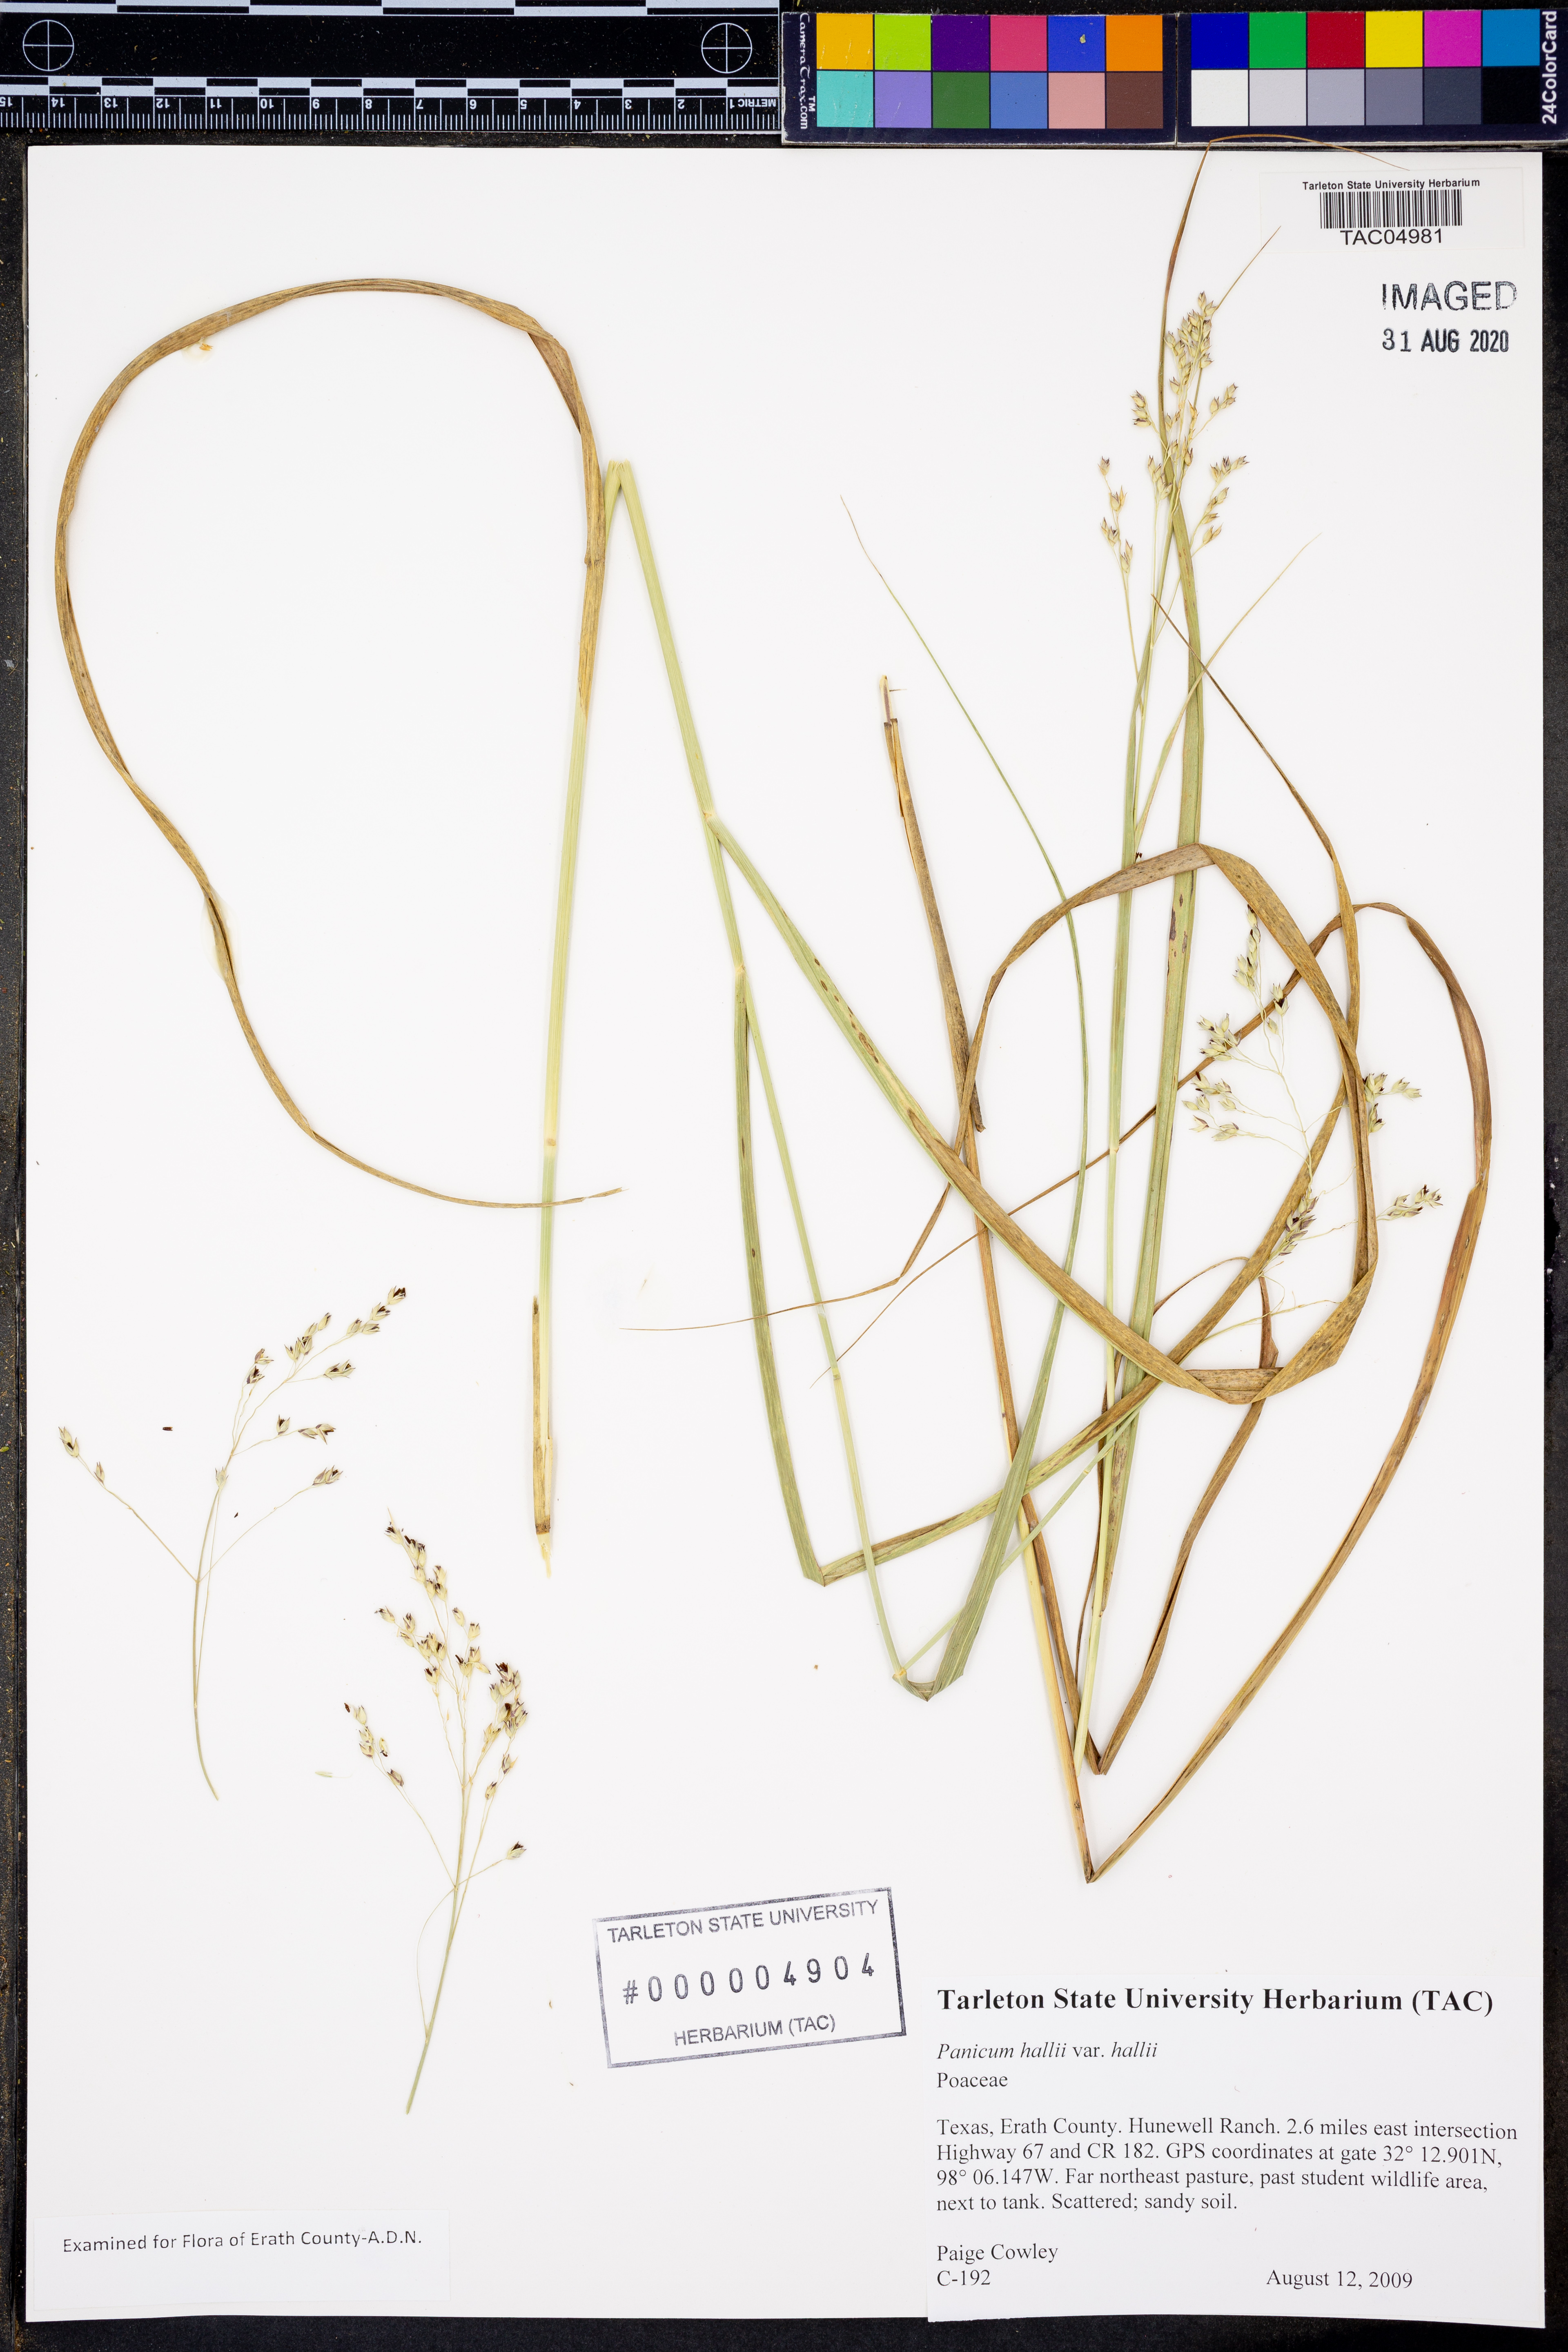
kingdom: Plantae
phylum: Tracheophyta
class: Liliopsida
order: Poales
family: Poaceae
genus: Panicum
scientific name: Panicum hallii
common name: Hall's witchgrass
